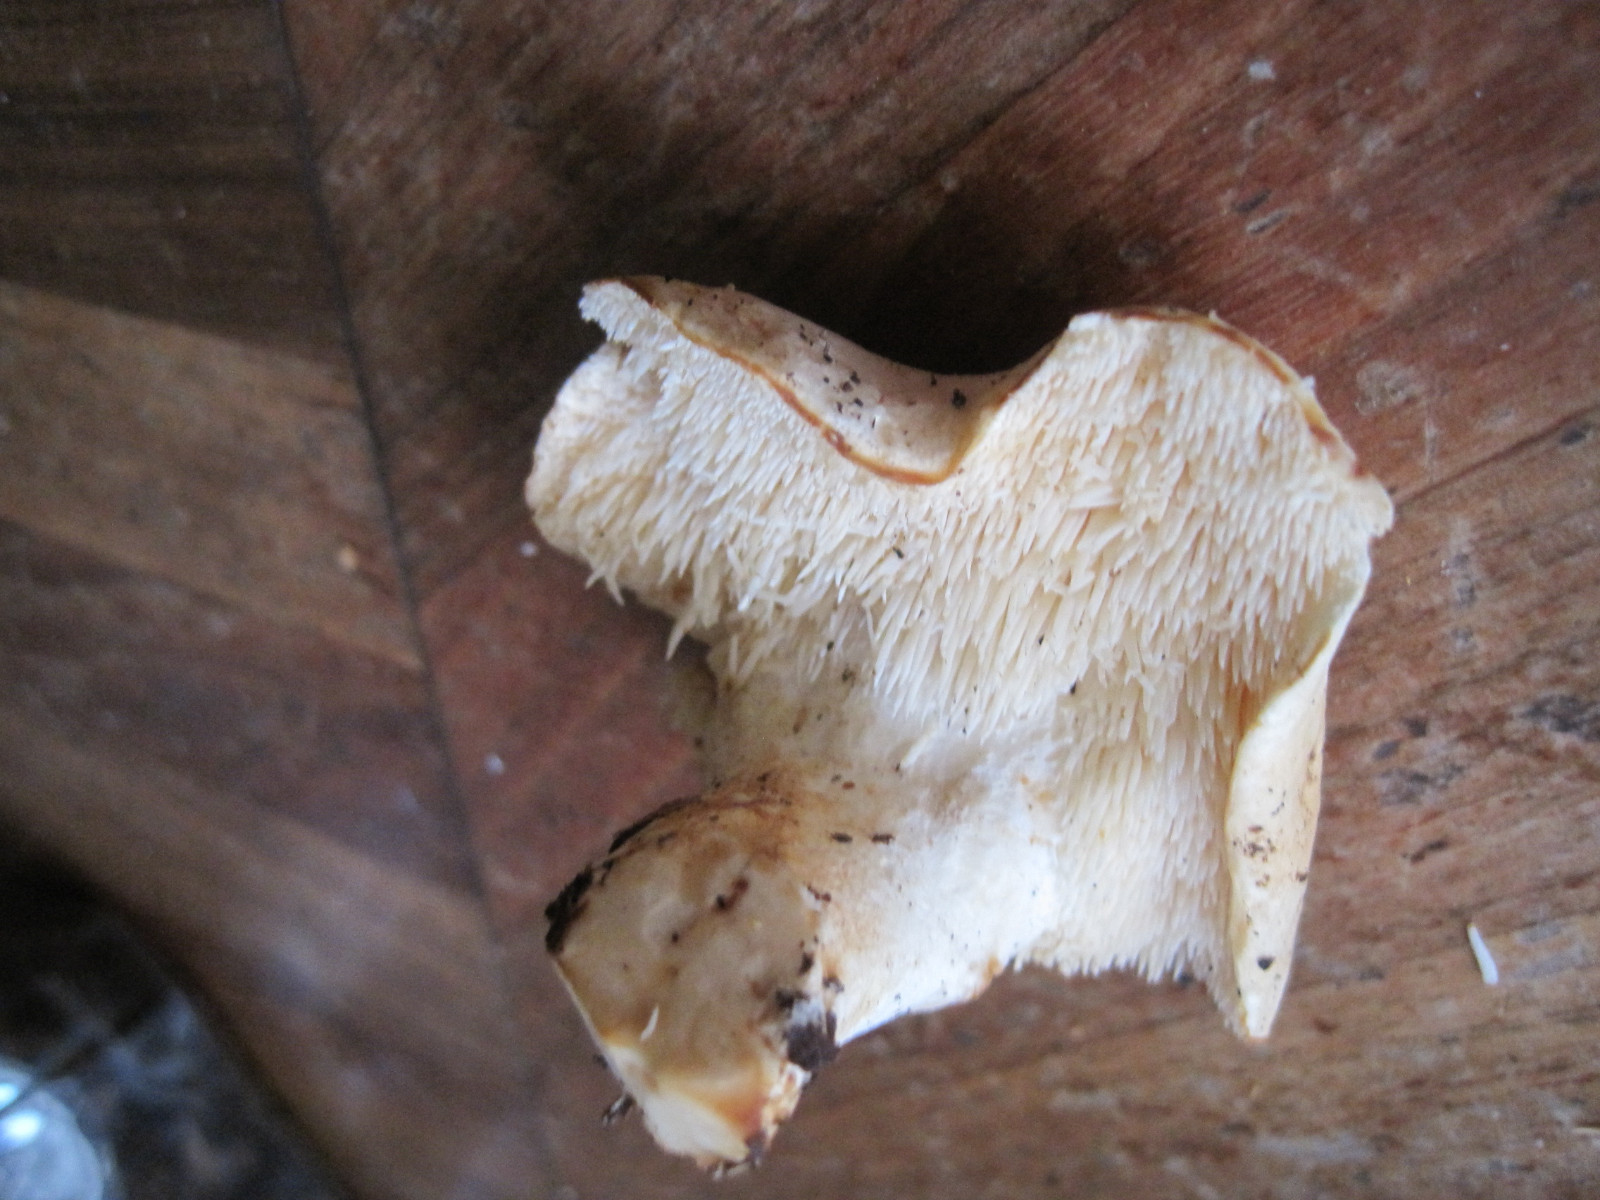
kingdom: Fungi
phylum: Basidiomycota
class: Agaricomycetes
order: Cantharellales
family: Hydnaceae
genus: Hydnum
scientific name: Hydnum repandum
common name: almindelig pigsvamp
